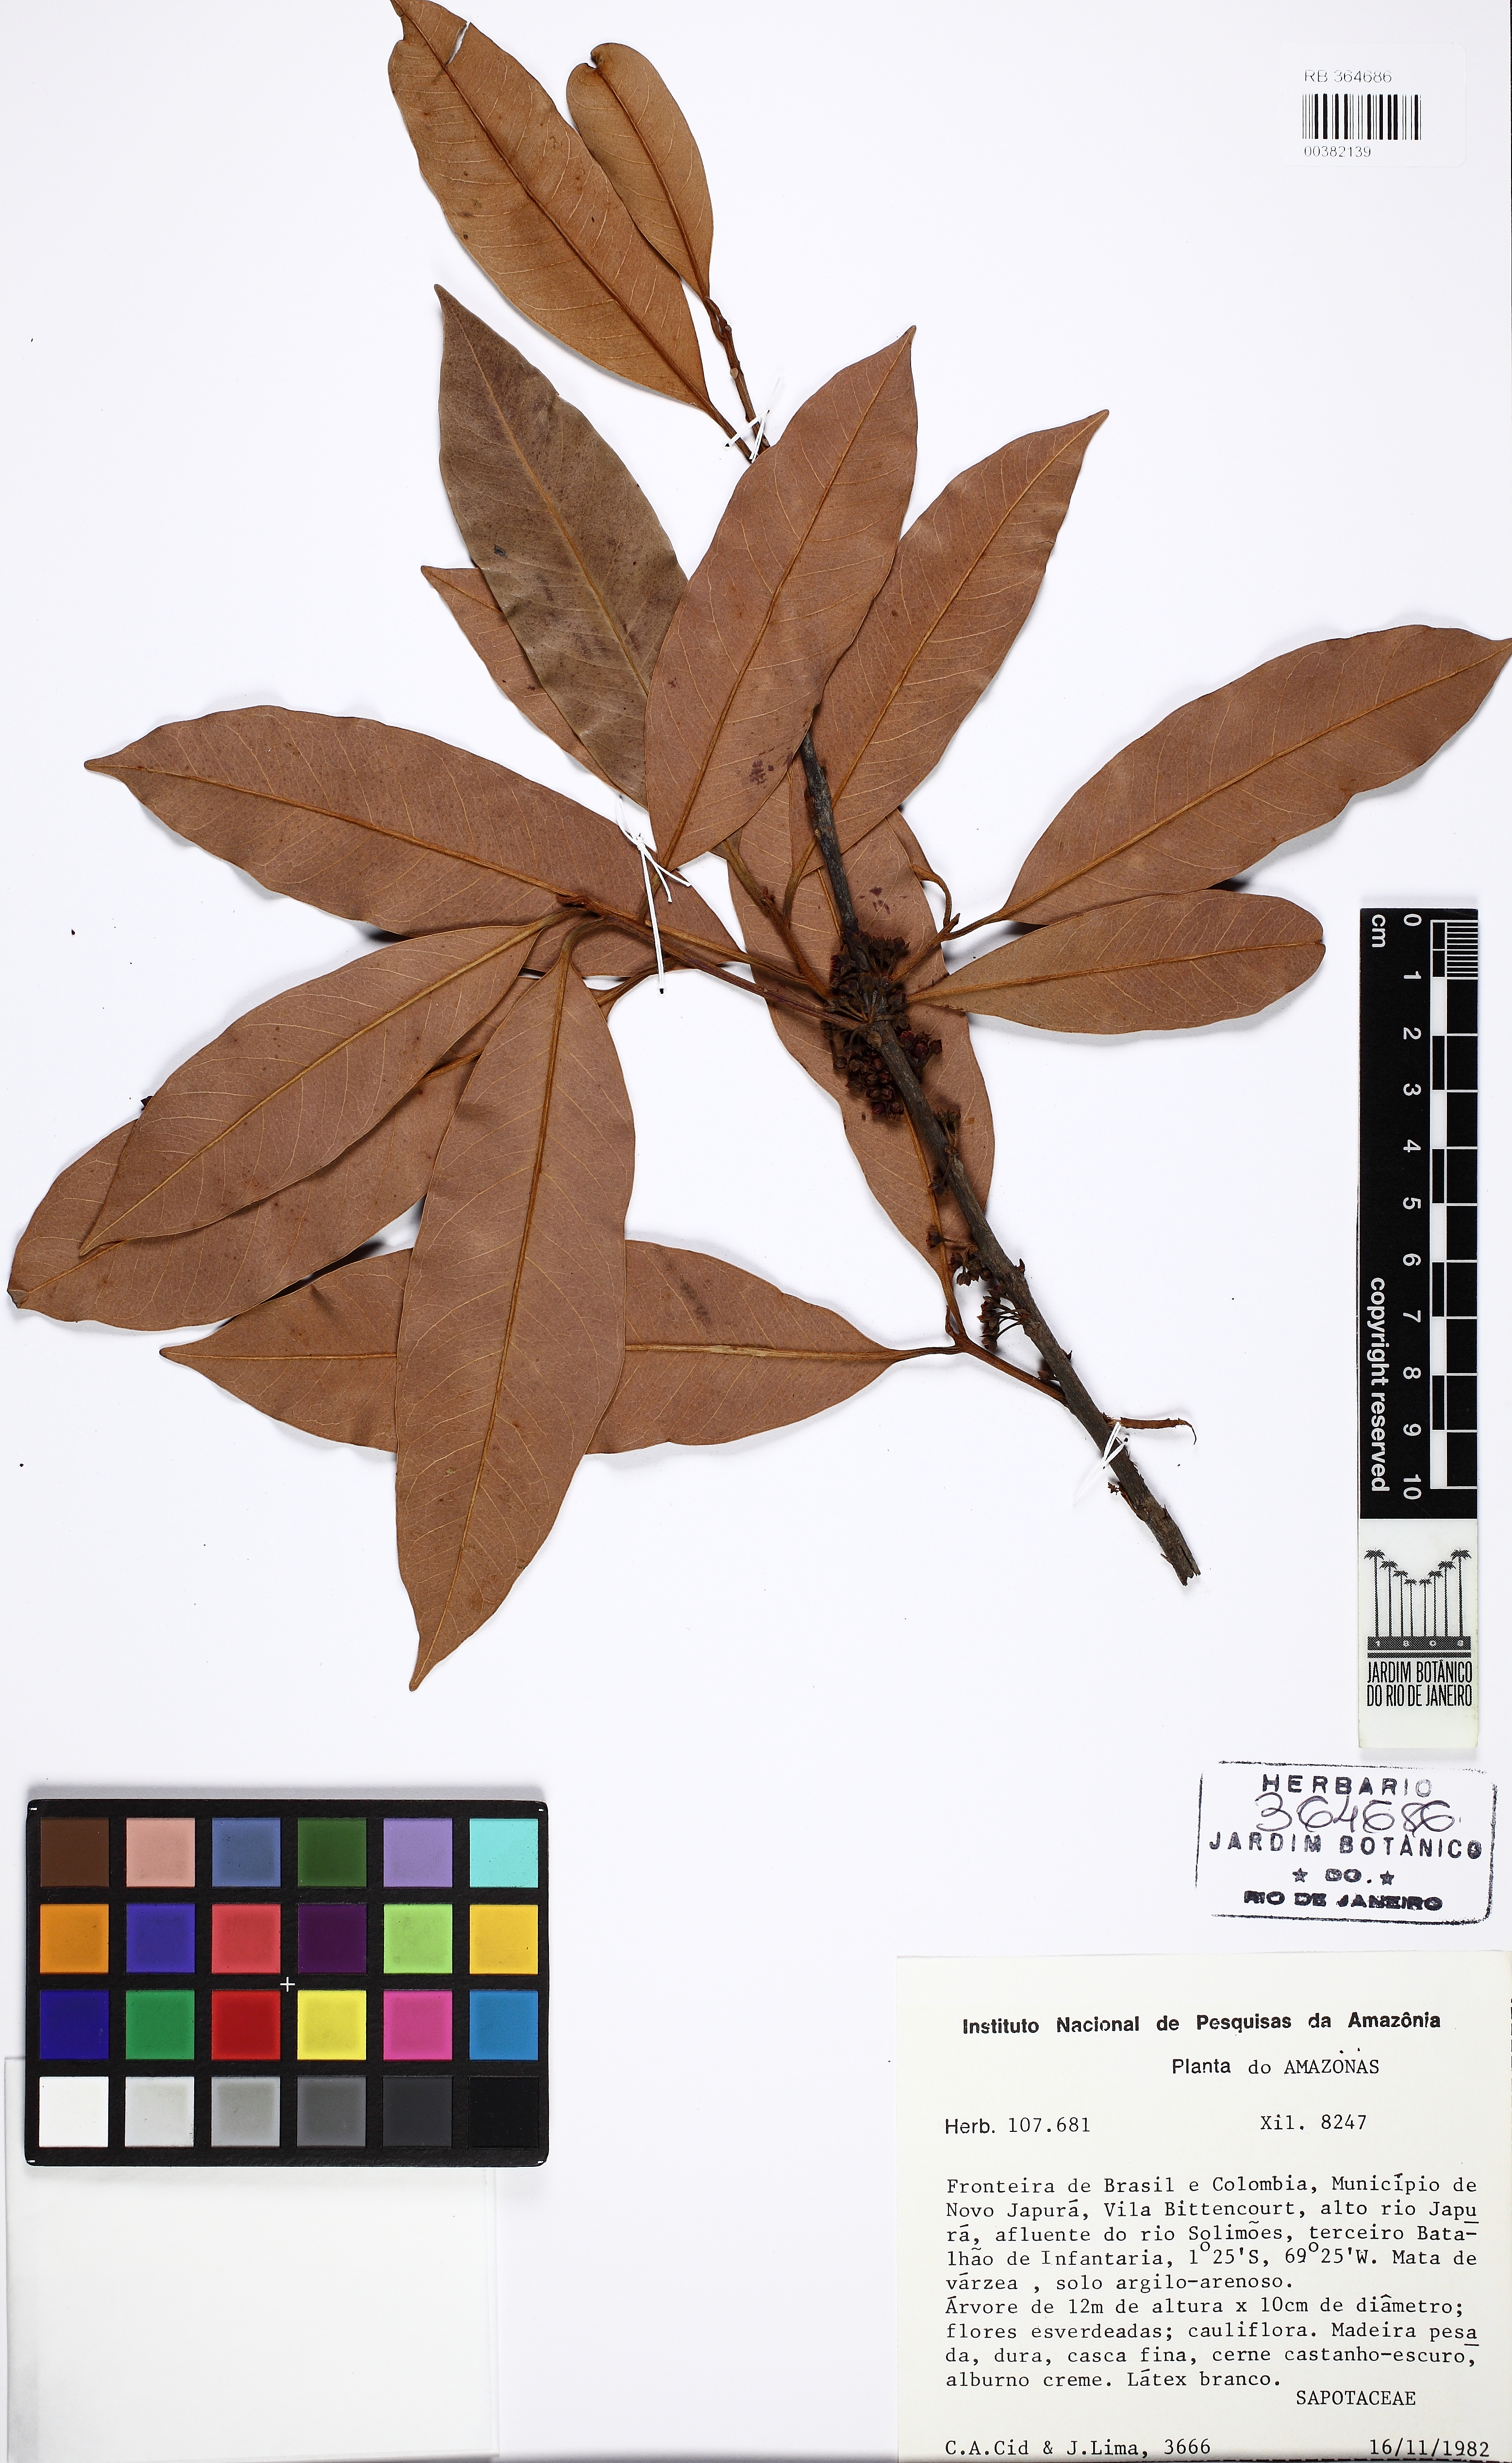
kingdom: Plantae
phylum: Tracheophyta
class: Magnoliopsida
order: Ericales
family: Sapotaceae
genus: Pouteria
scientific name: Pouteria
